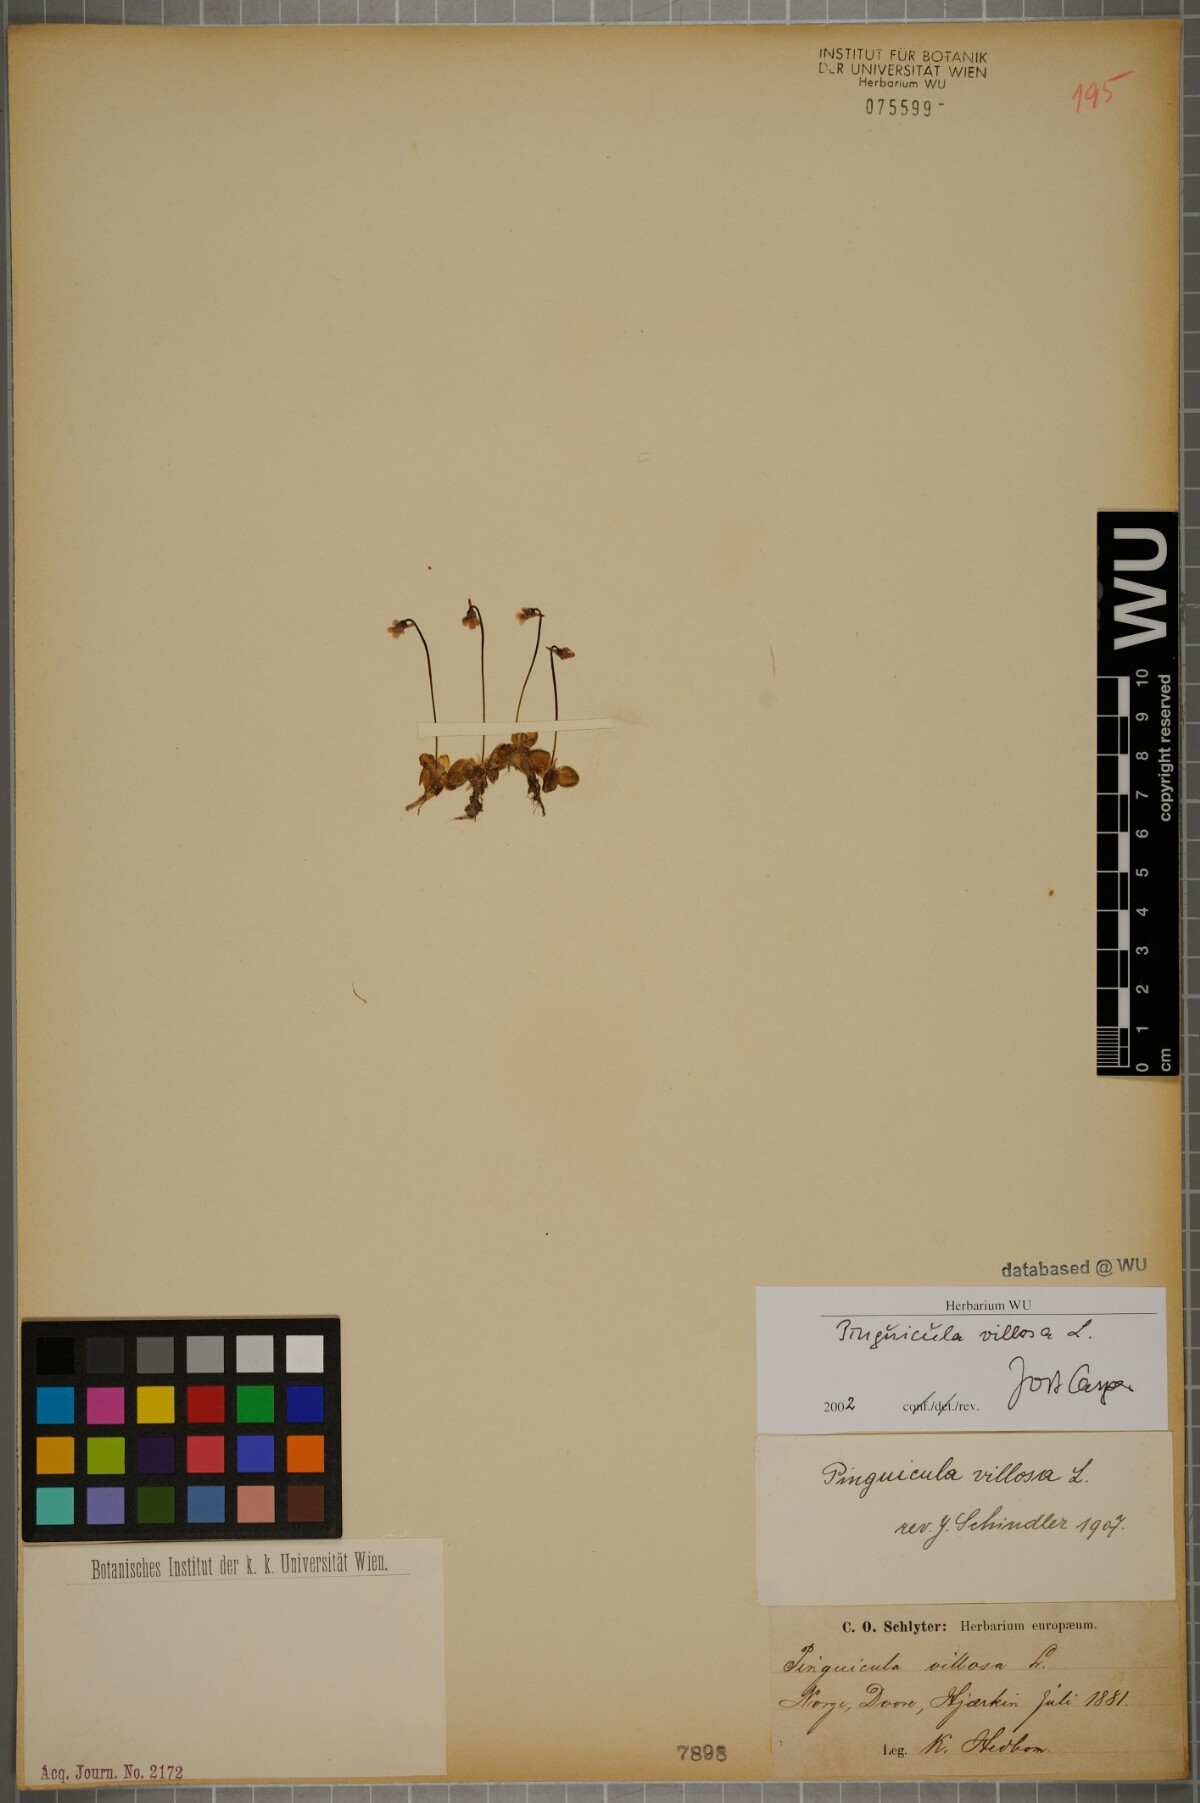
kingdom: Plantae
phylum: Tracheophyta
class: Magnoliopsida
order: Lamiales
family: Lentibulariaceae
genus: Pinguicula
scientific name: Pinguicula villosa
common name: Hairy butterwort
